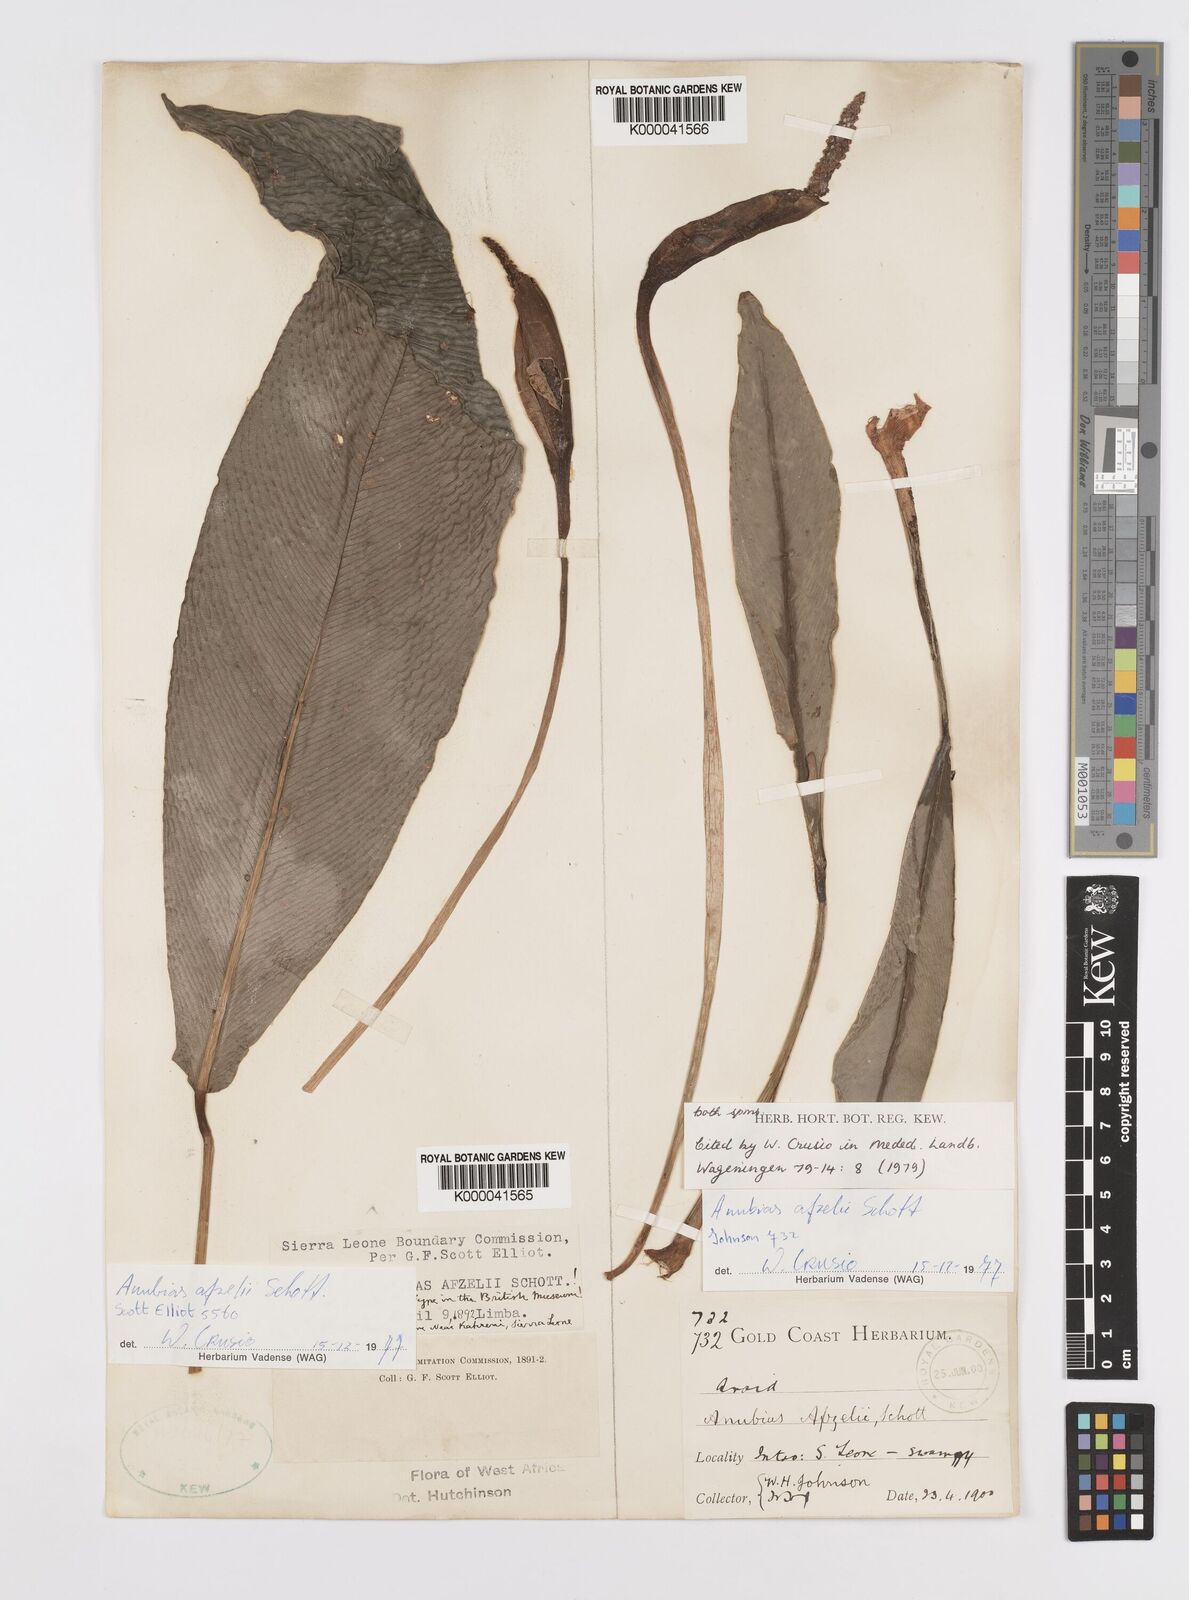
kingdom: Plantae
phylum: Tracheophyta
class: Liliopsida
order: Alismatales
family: Araceae
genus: Anubias
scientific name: Anubias afzelii
